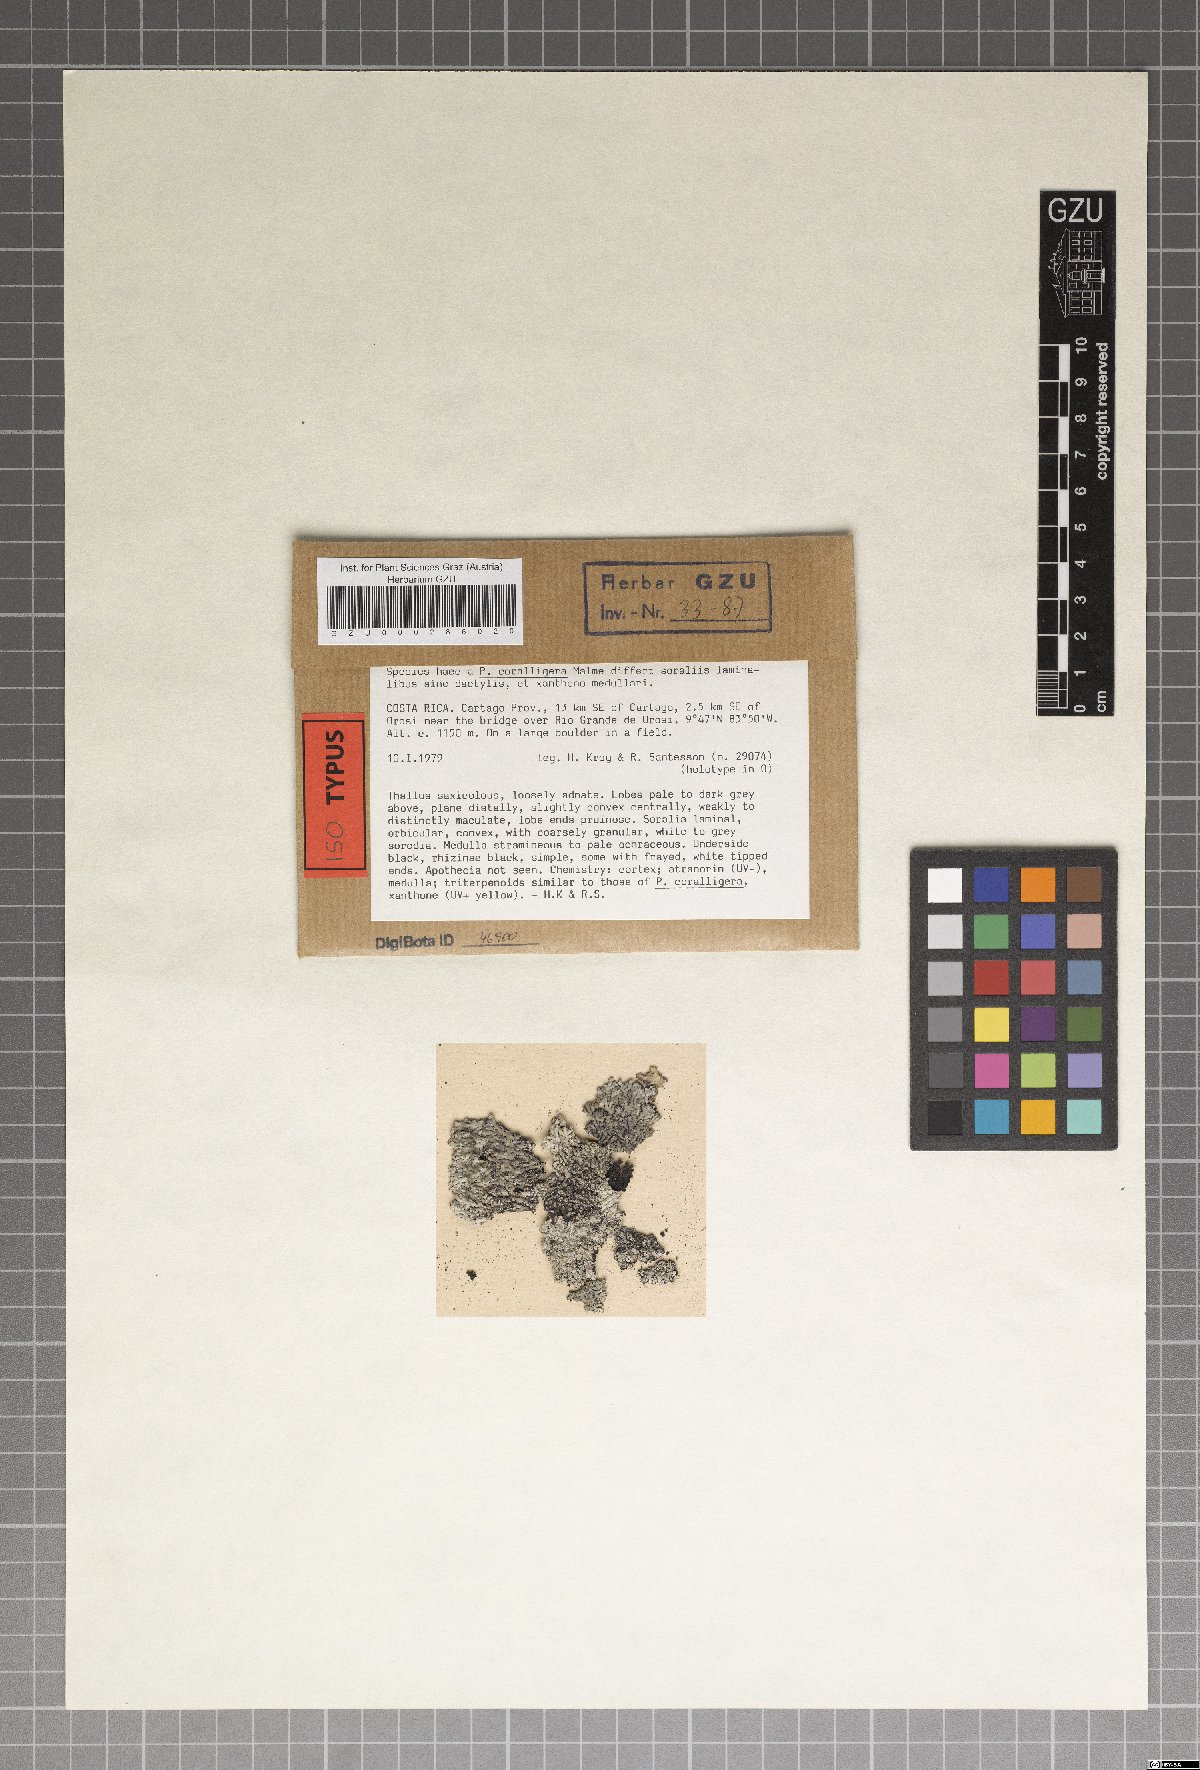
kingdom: Fungi
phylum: Ascomycota
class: Lecanoromycetes
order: Caliciales
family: Caliciaceae
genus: Pyxine
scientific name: Pyxine daedalea
